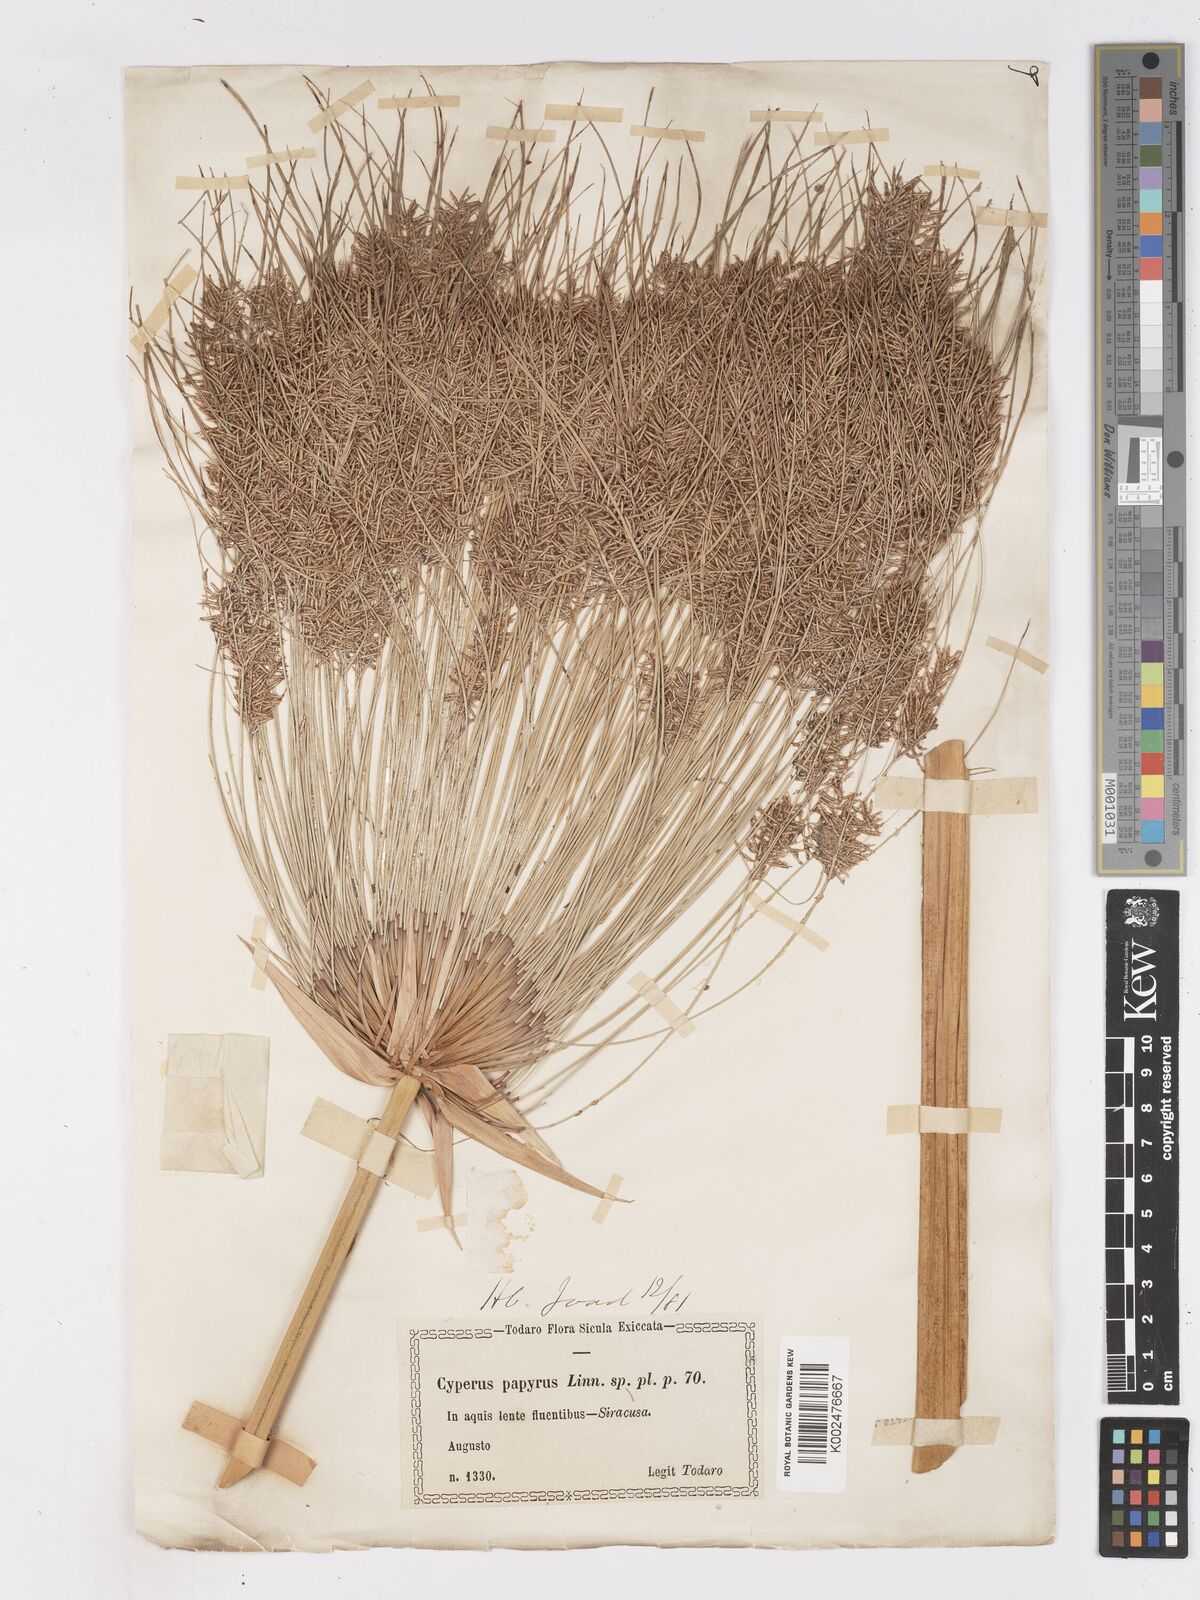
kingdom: Plantae
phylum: Tracheophyta
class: Liliopsida
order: Poales
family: Cyperaceae
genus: Cyperus
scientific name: Cyperus papyrus
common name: Papyrus
